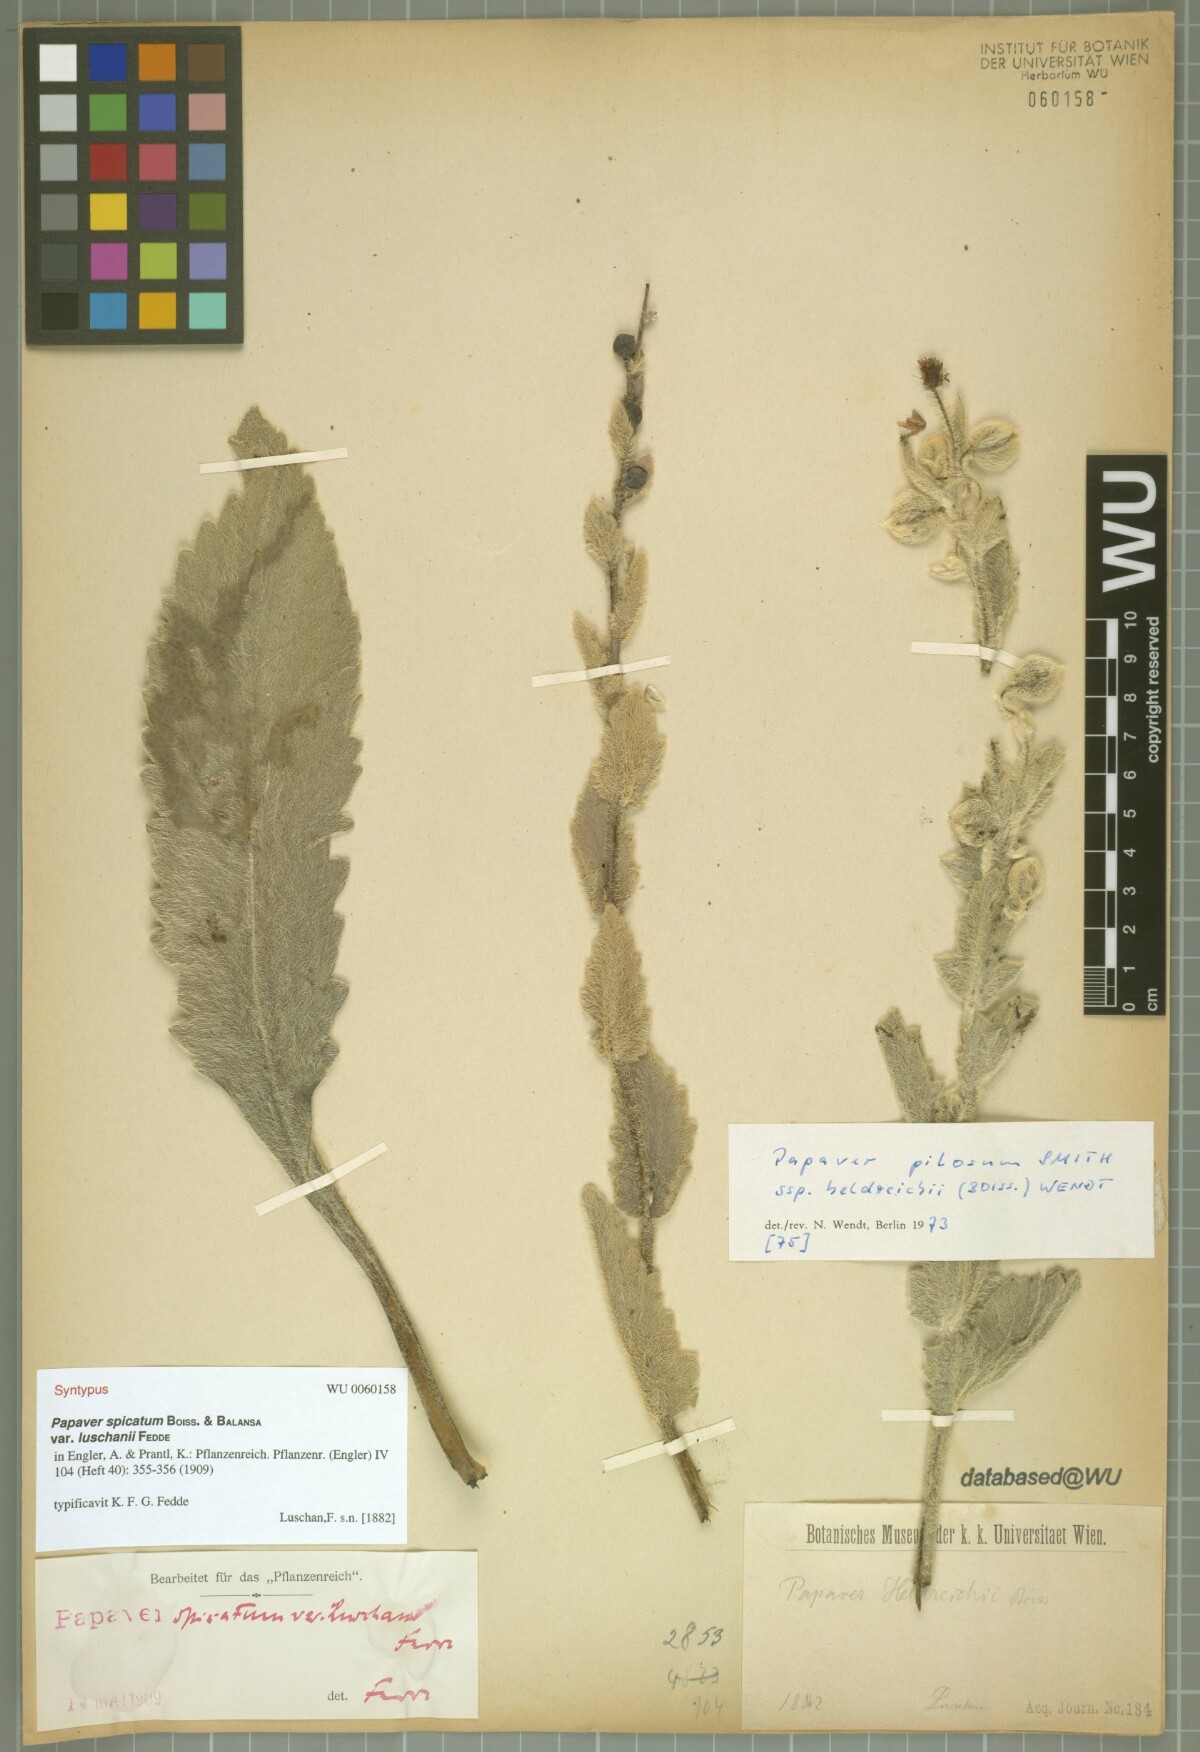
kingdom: Plantae
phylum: Tracheophyta
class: Magnoliopsida
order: Ranunculales
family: Papaveraceae
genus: Papaver
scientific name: Papaver pilosum
